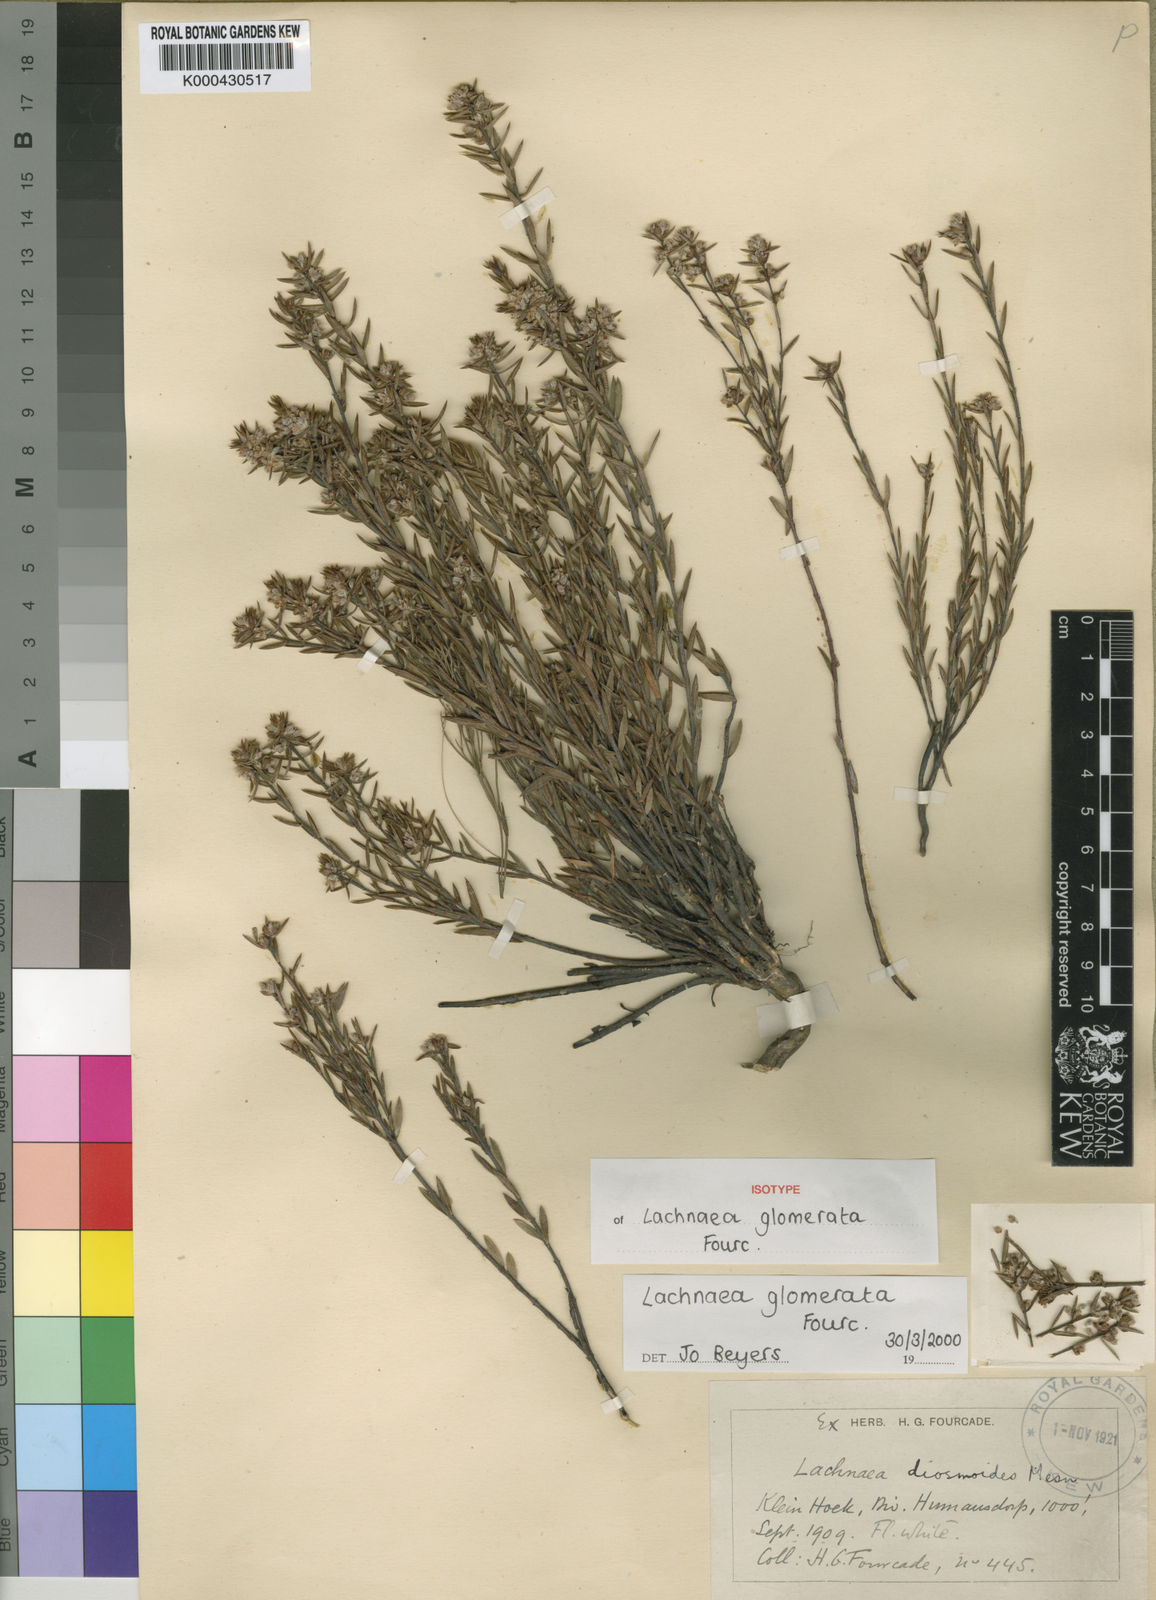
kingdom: Plantae
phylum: Tracheophyta
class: Magnoliopsida
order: Malvales
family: Thymelaeaceae
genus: Lachnaea
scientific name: Lachnaea glomerata
